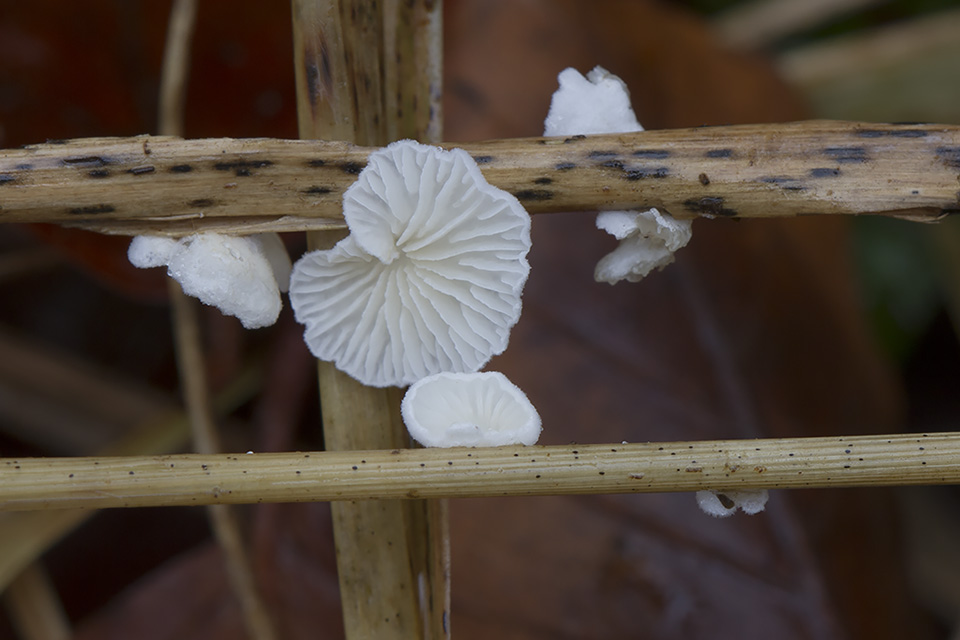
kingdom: Fungi
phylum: Basidiomycota
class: Agaricomycetes
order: Agaricales
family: Crepidotaceae
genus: Crepidotus
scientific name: Crepidotus epibryus
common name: førne-muslingesvamp
